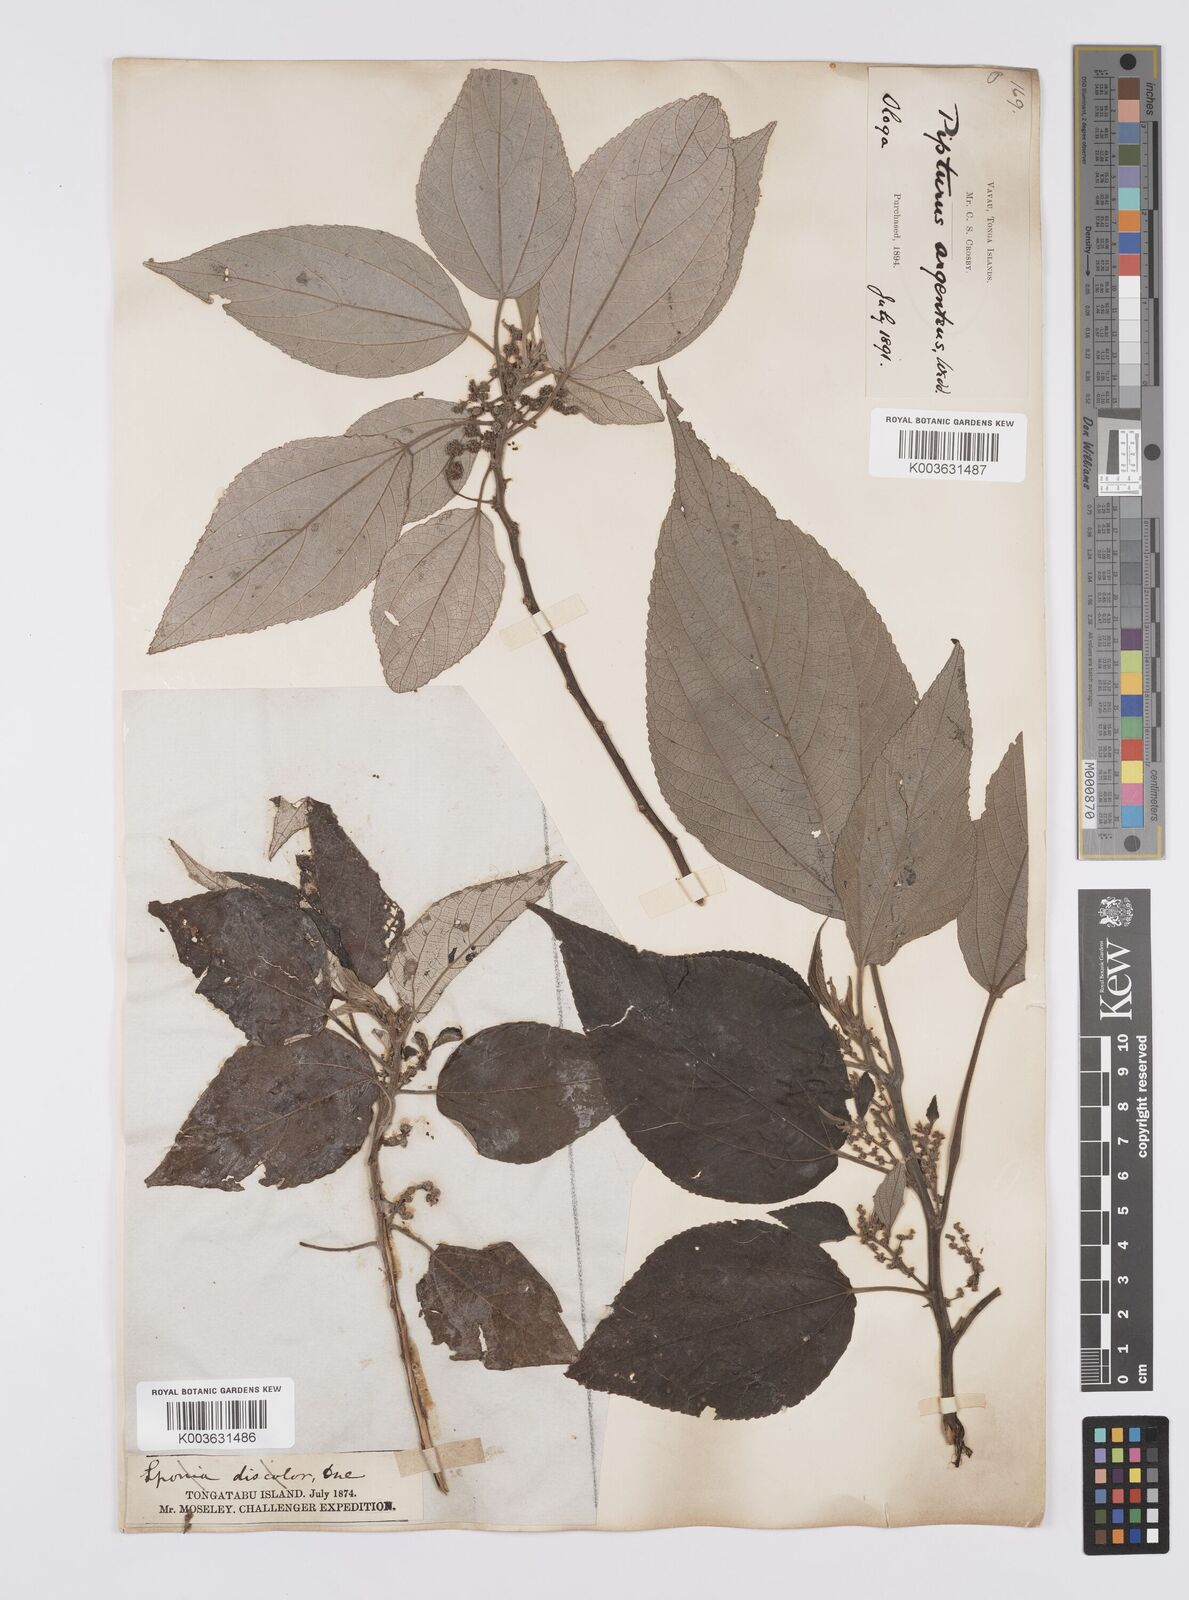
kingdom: Plantae
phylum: Tracheophyta
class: Magnoliopsida
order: Rosales
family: Urticaceae
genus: Pipturus
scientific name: Pipturus argenteus
